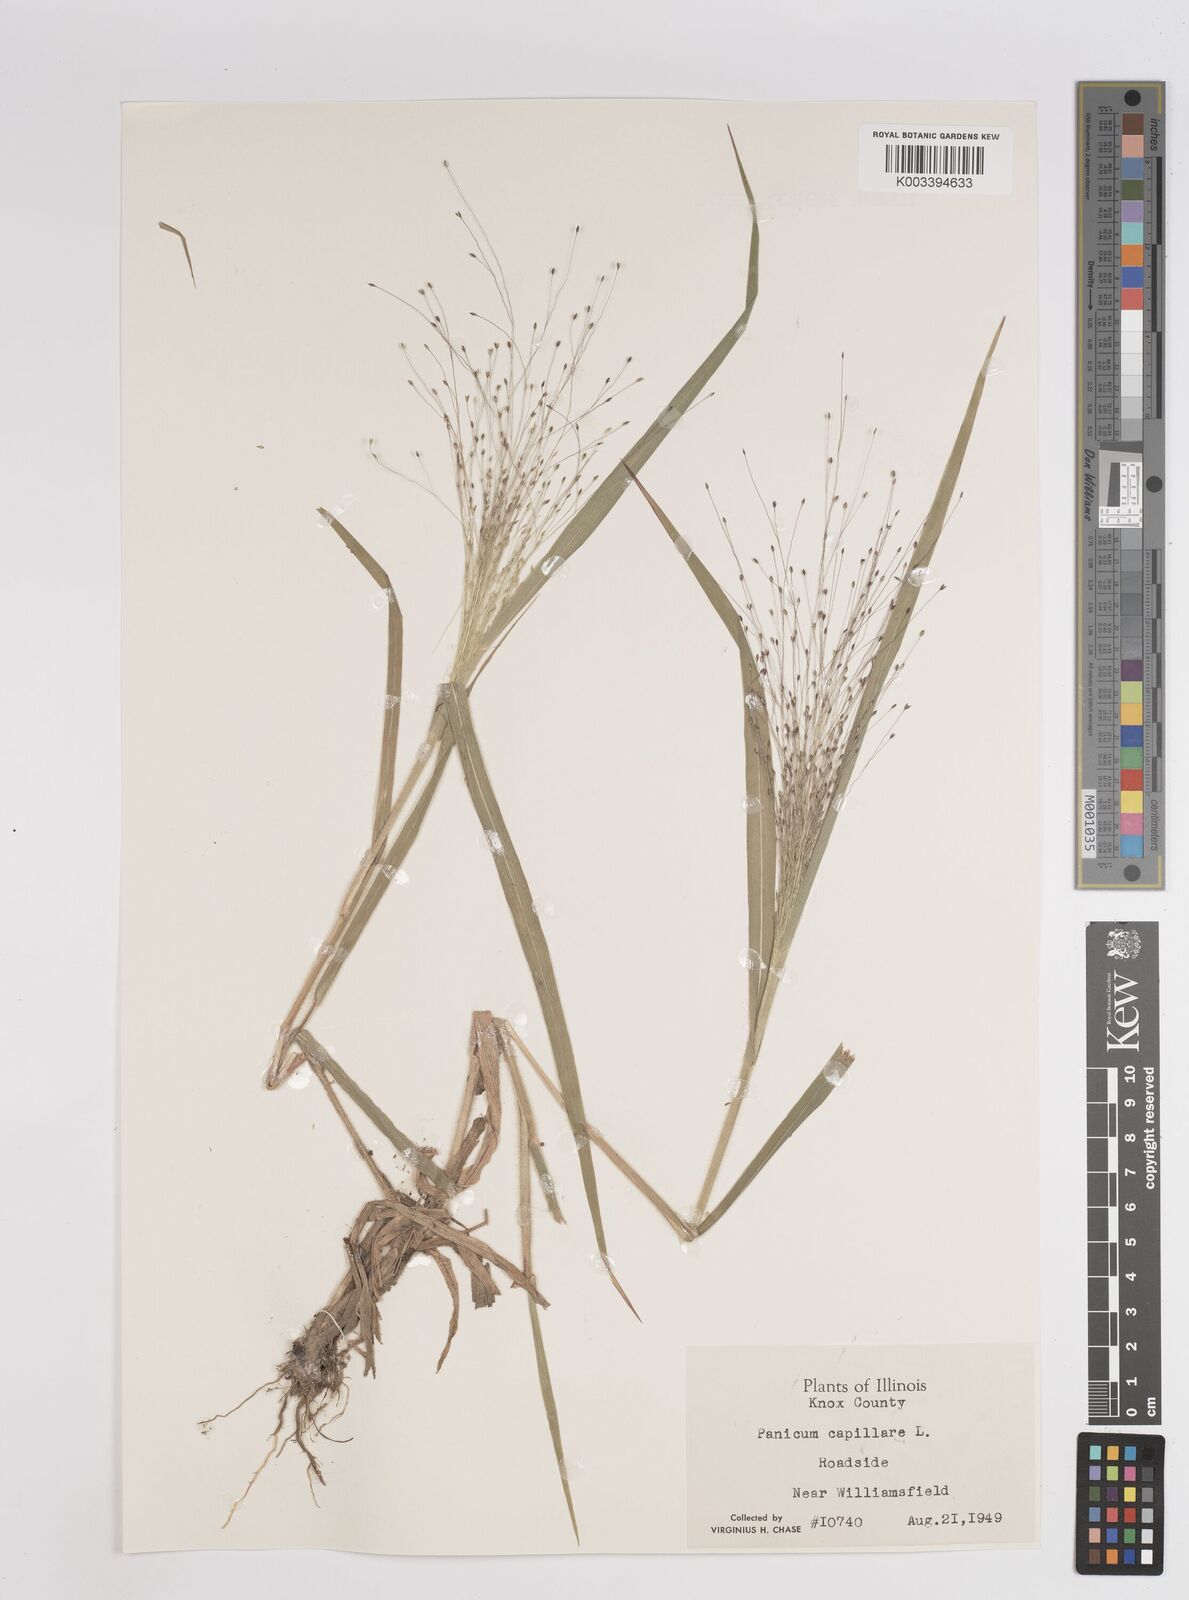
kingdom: Plantae
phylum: Tracheophyta
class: Liliopsida
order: Poales
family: Poaceae
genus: Panicum
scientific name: Panicum capillare
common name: Witch-grass
